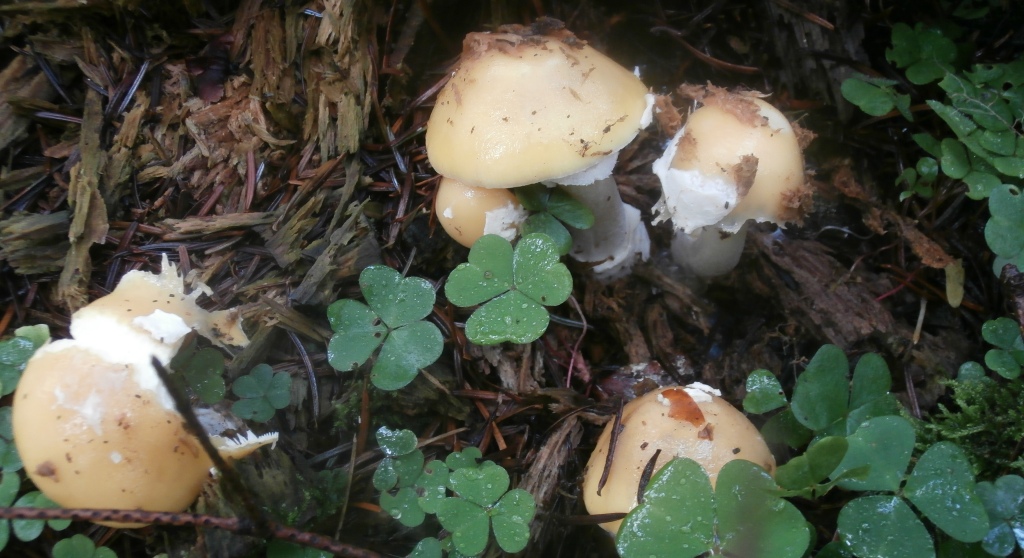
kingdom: Fungi
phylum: Basidiomycota
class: Agaricomycetes
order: Agaricales
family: Amanitaceae
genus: Amanita
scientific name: Amanita gemmata
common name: okkergul fluesvamp
